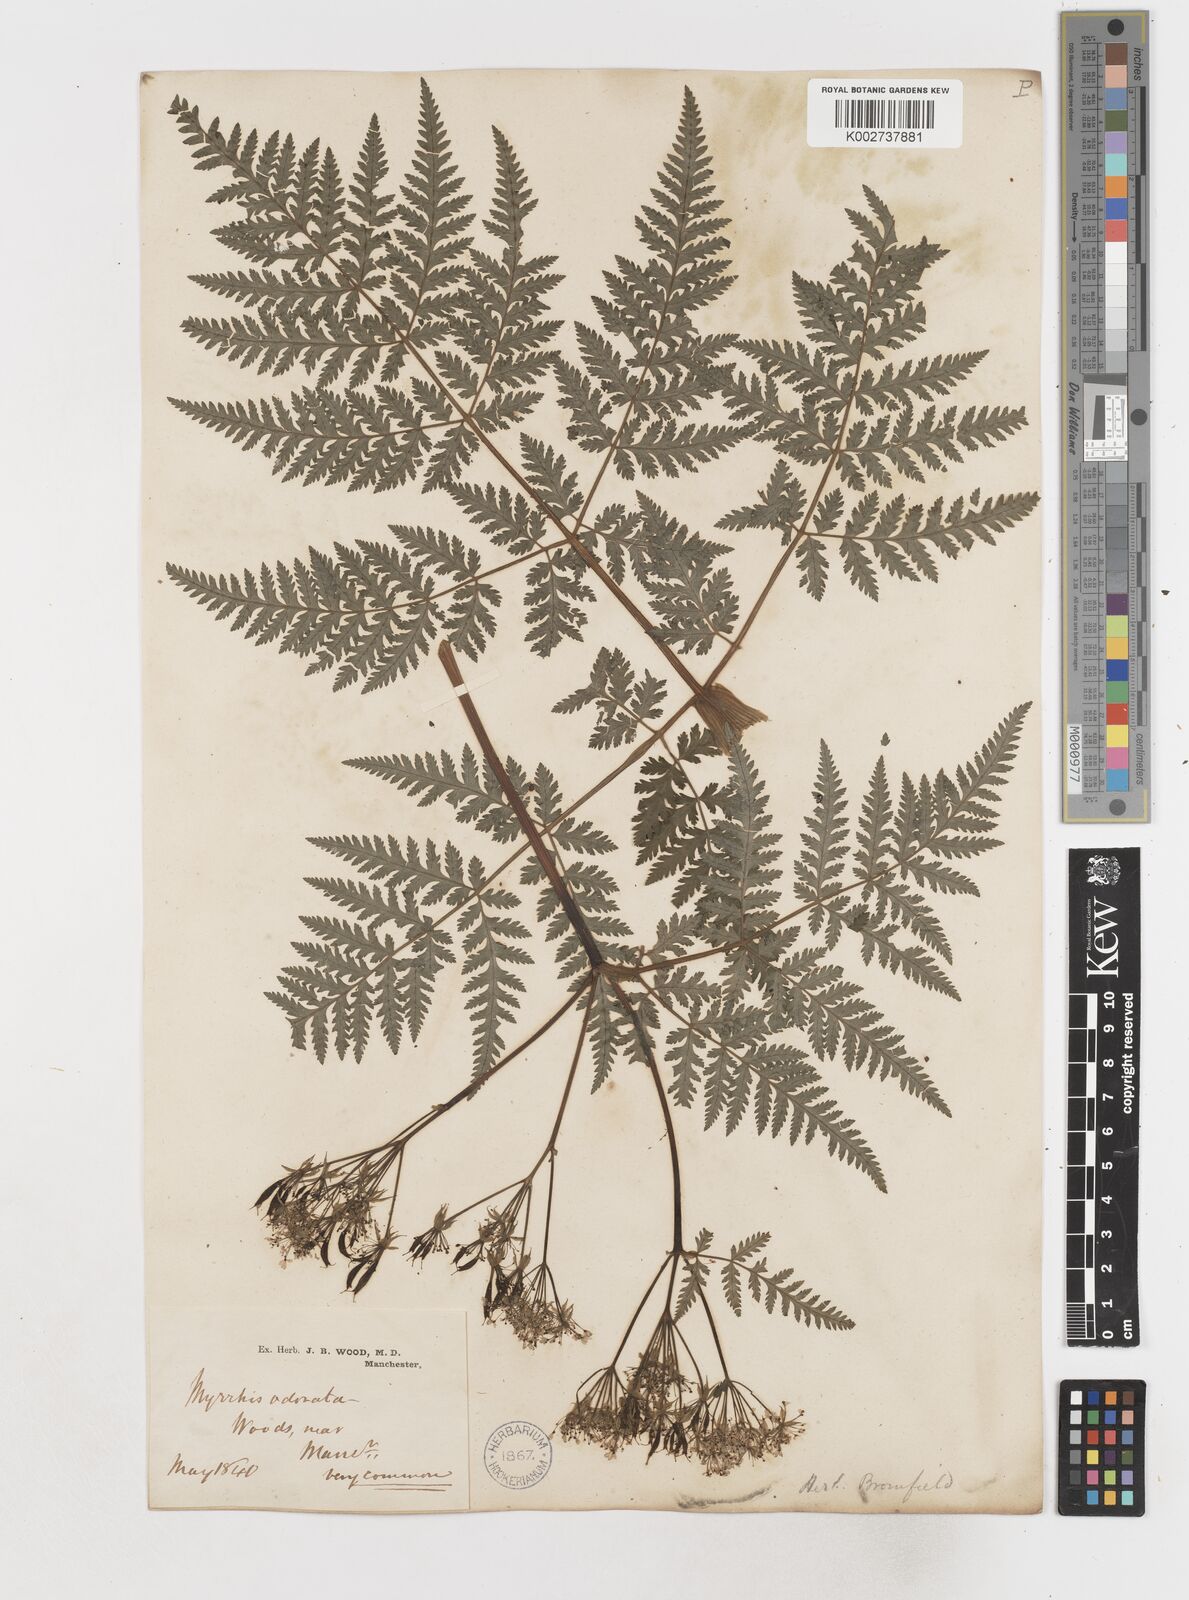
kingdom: Plantae
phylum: Tracheophyta
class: Magnoliopsida
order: Apiales
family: Apiaceae
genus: Myrrhis
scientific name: Myrrhis odorata
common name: Sweet cicely
